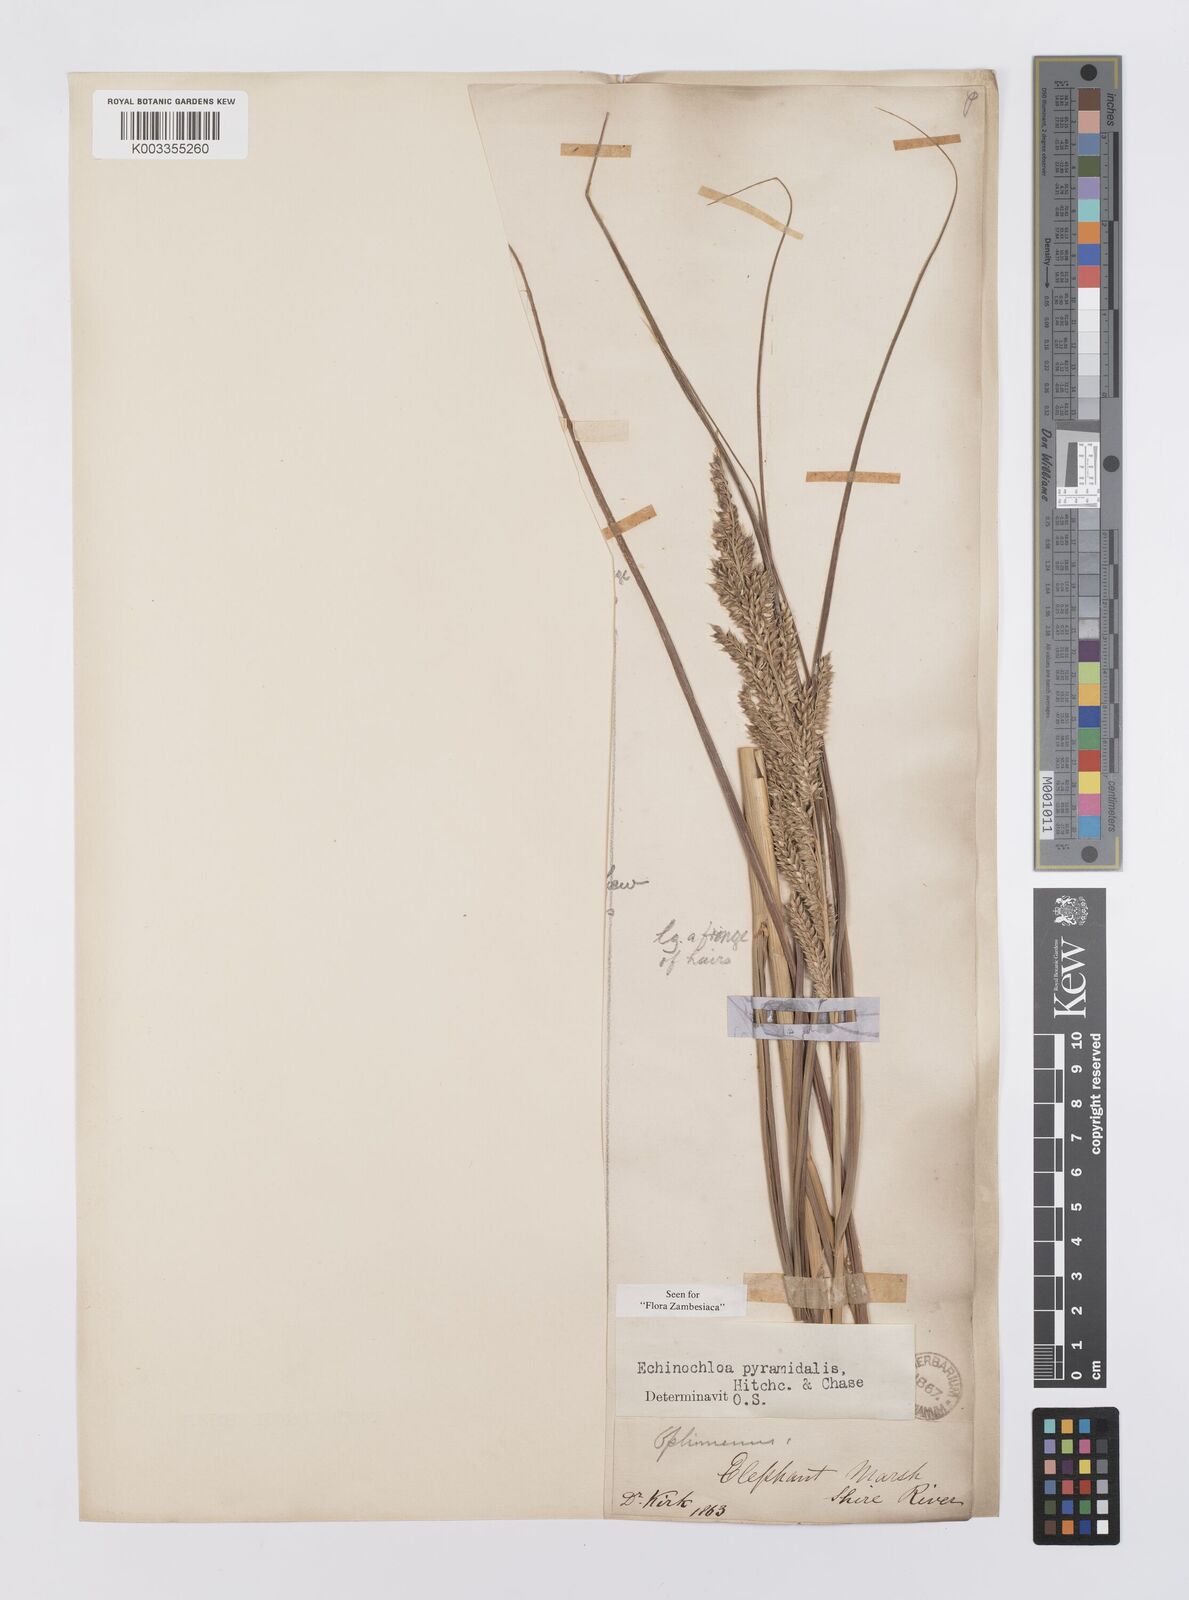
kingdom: Plantae
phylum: Tracheophyta
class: Liliopsida
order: Poales
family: Poaceae
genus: Echinochloa
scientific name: Echinochloa pyramidalis
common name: Antelope grass
